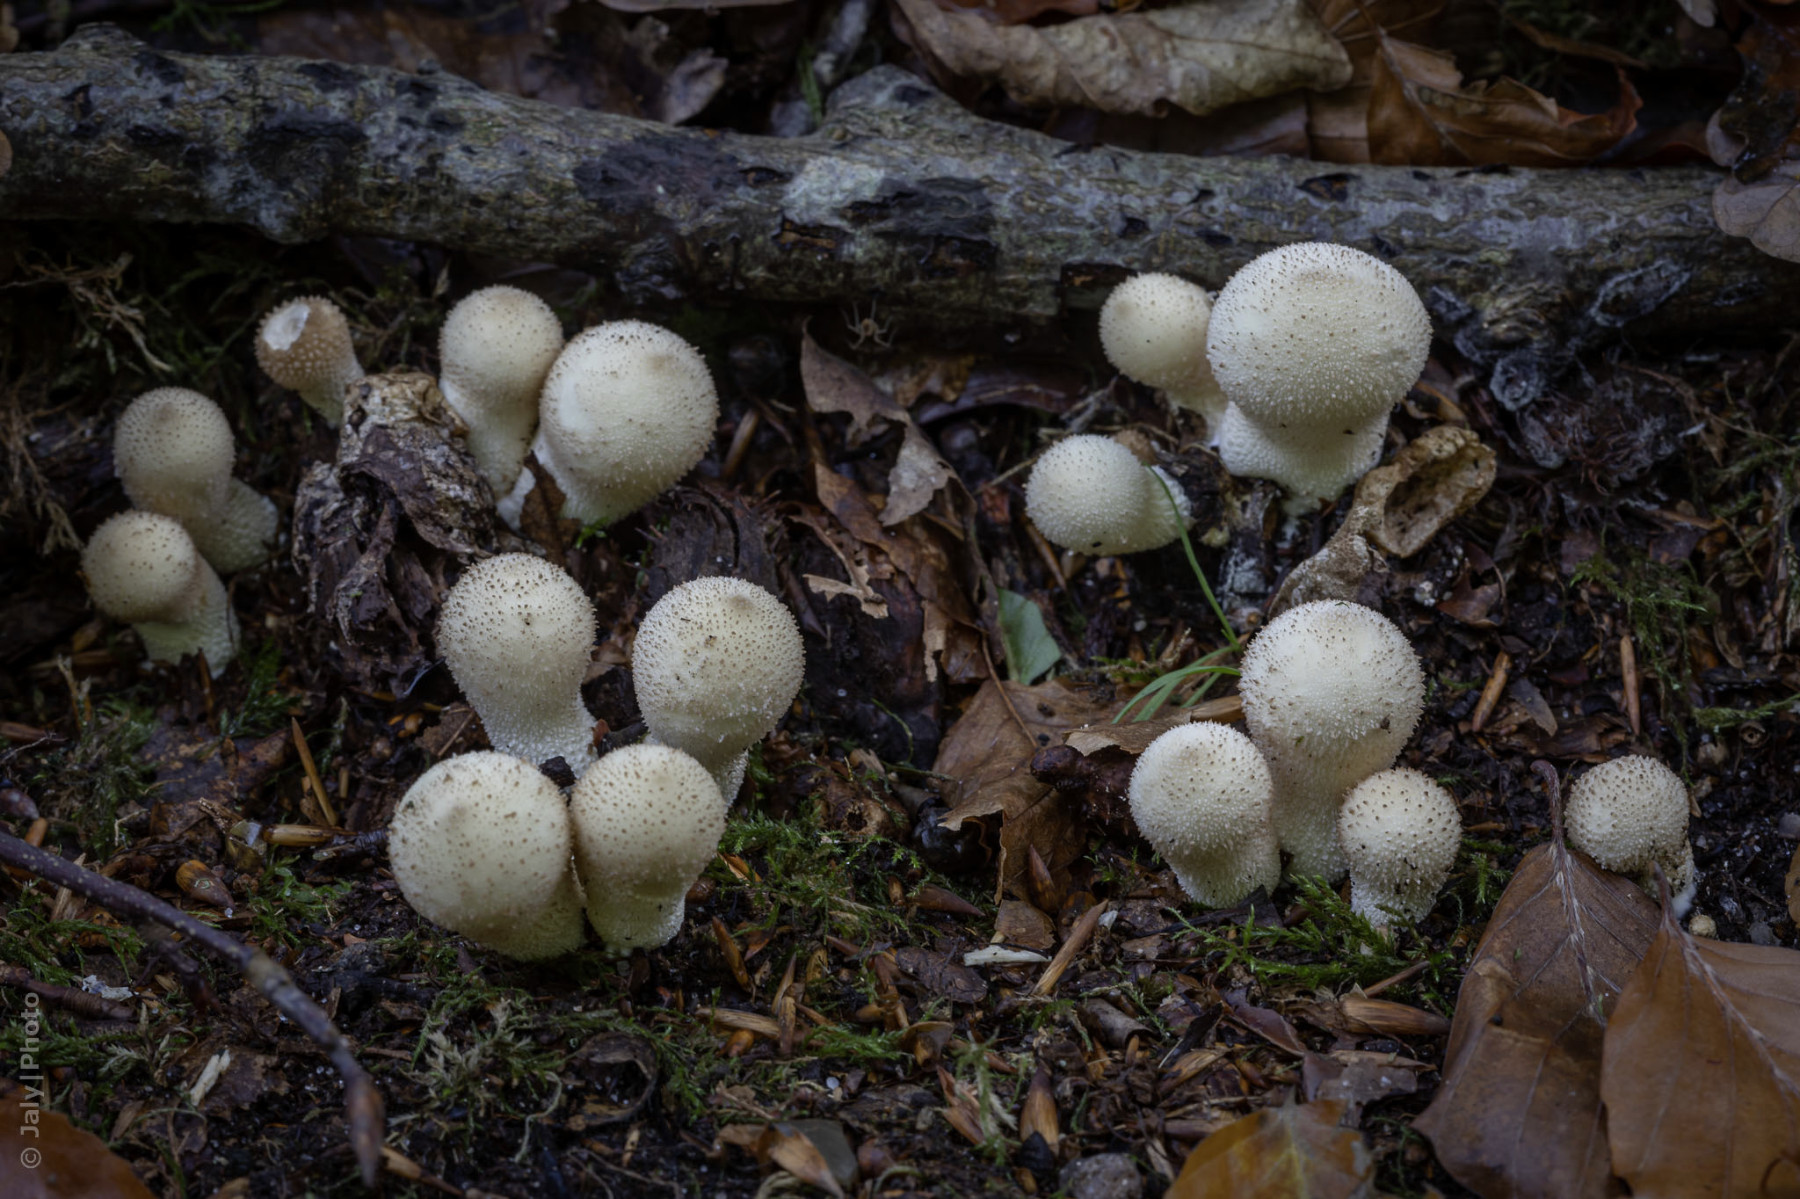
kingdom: Fungi
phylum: Basidiomycota
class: Agaricomycetes
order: Agaricales
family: Lycoperdaceae
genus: Apioperdon
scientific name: Apioperdon pyriforme
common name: pære-støvbold
